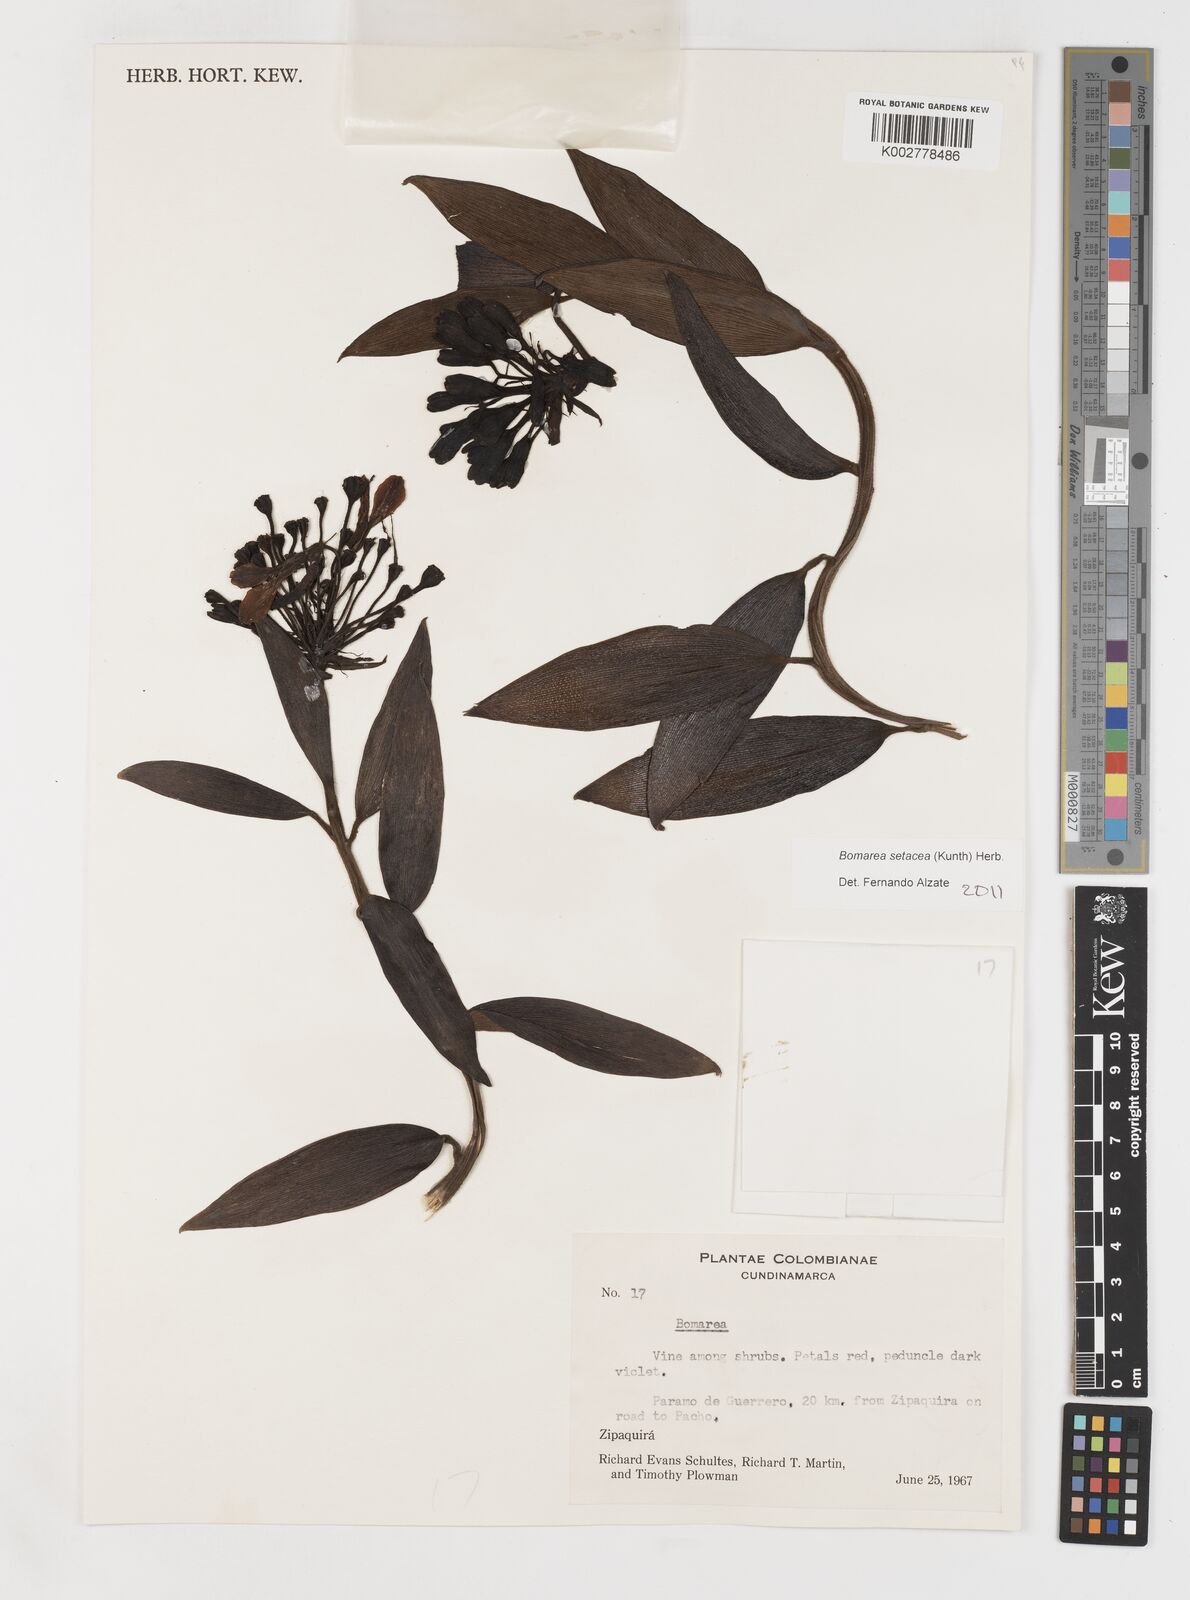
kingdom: Plantae
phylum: Tracheophyta
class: Liliopsida
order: Liliales
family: Alstroemeriaceae
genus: Bomarea
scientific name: Bomarea setacea
